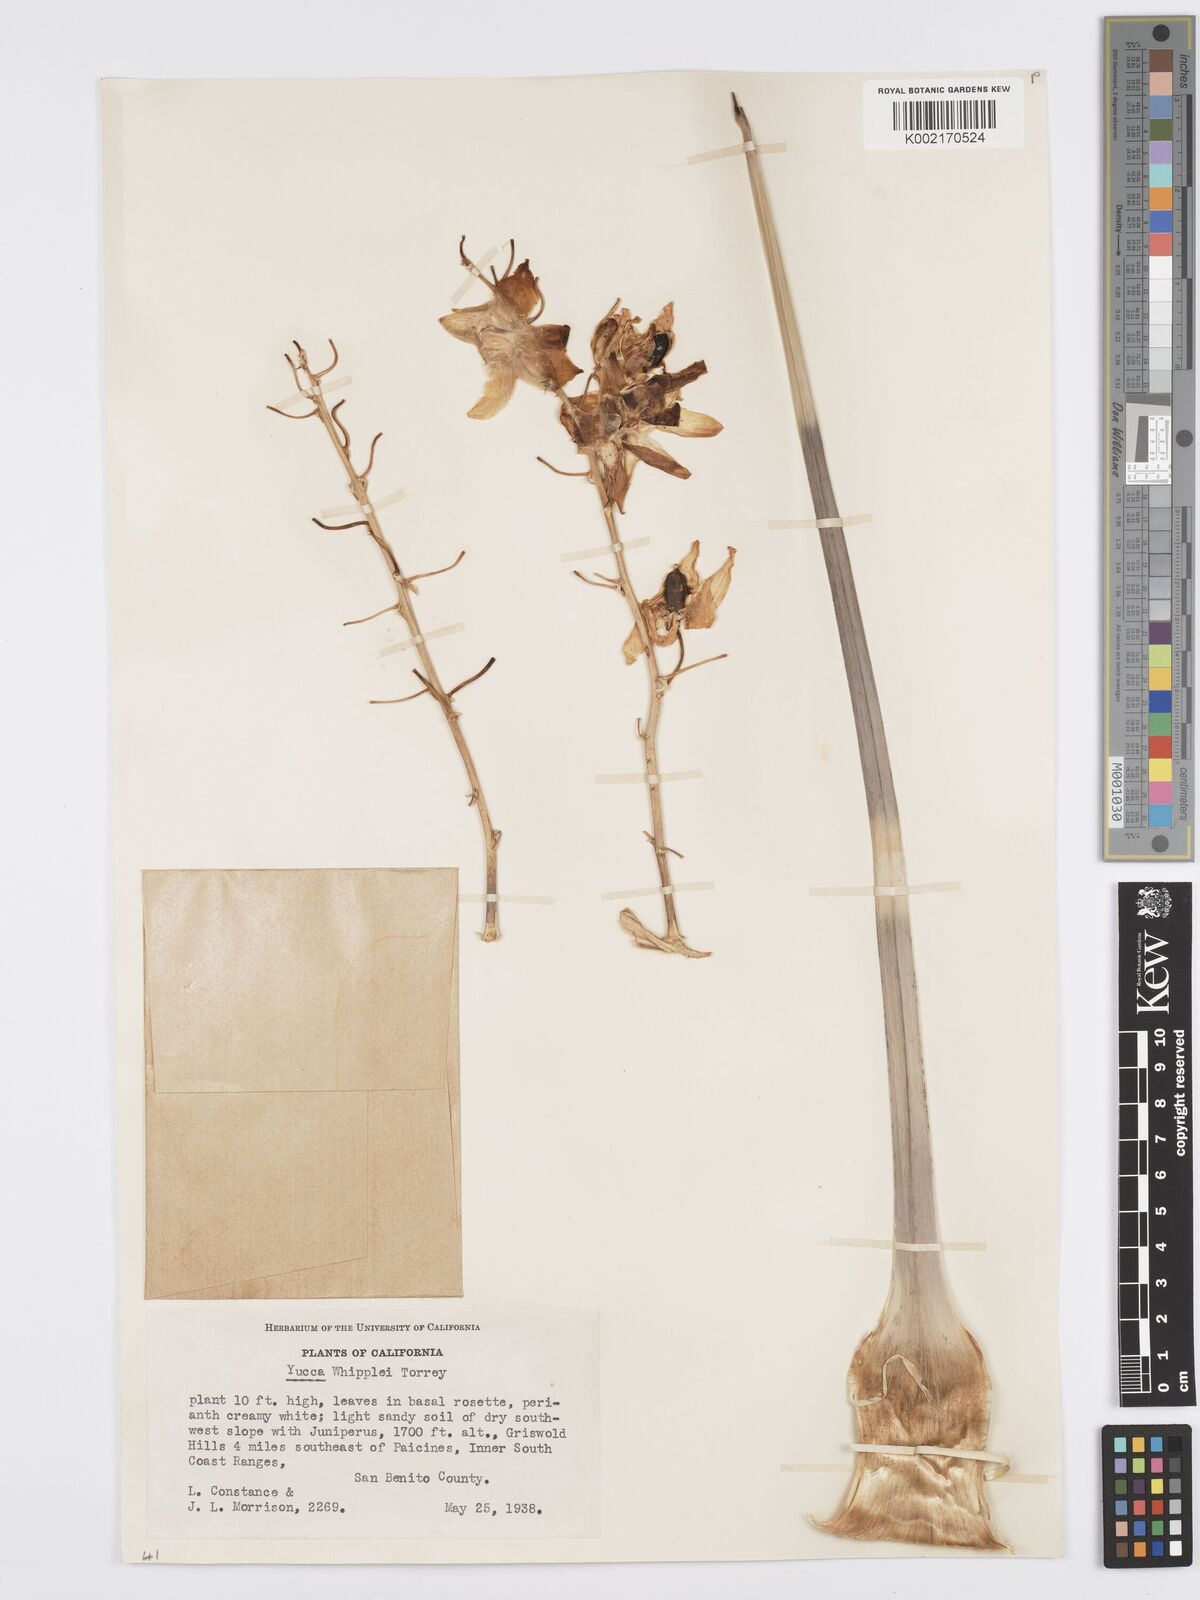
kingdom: Plantae
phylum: Tracheophyta
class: Liliopsida
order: Asparagales
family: Asparagaceae
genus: Hesperoyucca
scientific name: Hesperoyucca whipplei
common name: Our lord's-candle
